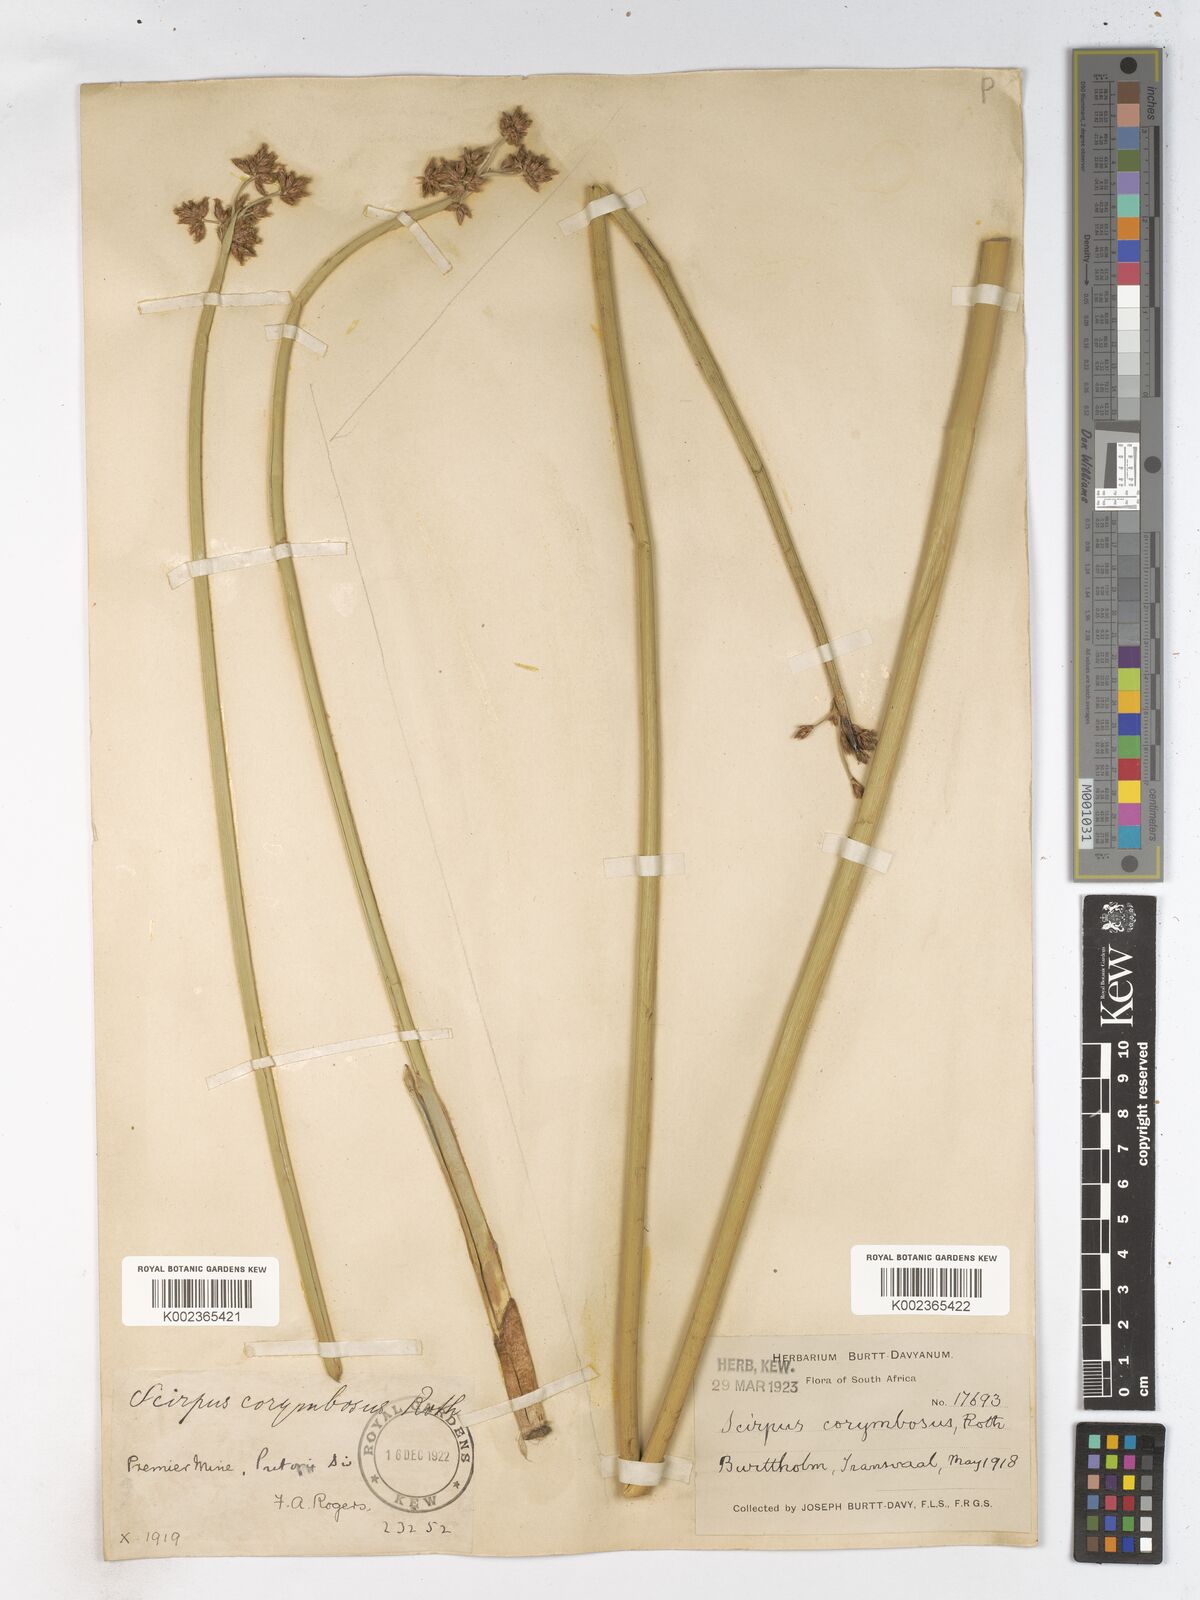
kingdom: Plantae
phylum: Tracheophyta
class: Liliopsida
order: Poales
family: Cyperaceae
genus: Schoenoplectiella
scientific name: Schoenoplectiella brachyceras
